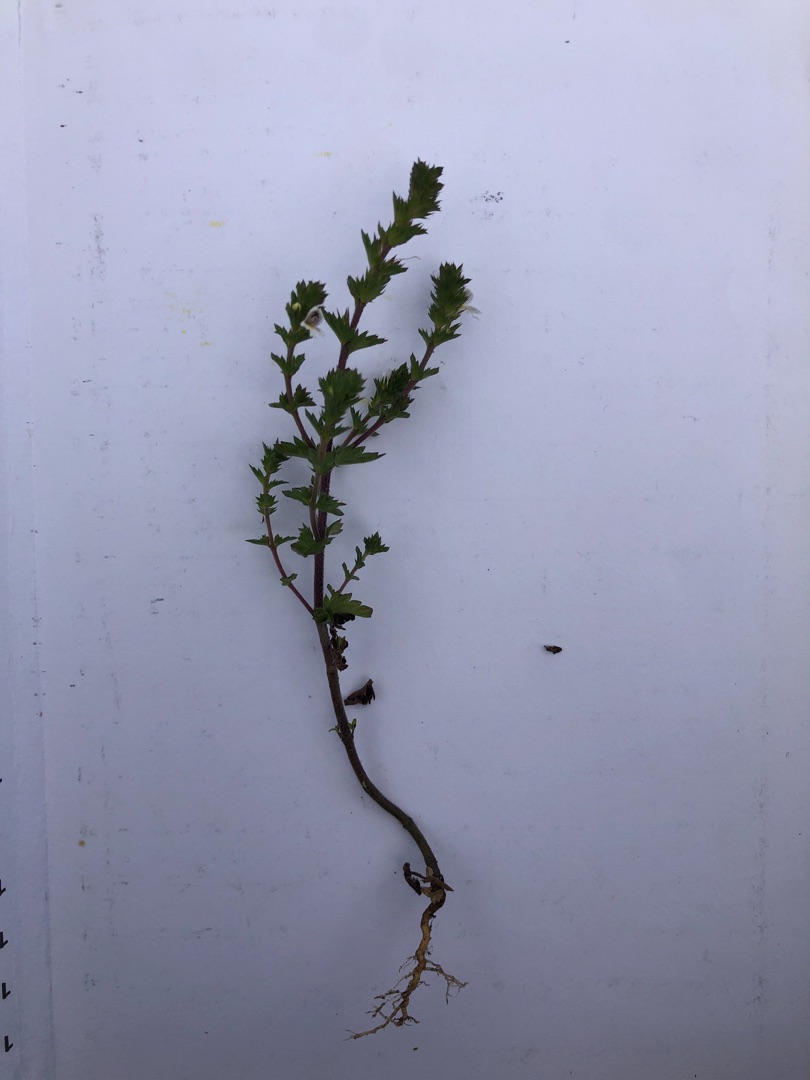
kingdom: Plantae
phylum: Tracheophyta
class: Magnoliopsida
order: Lamiales
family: Orobanchaceae
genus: Euphrasia
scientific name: Euphrasia stricta
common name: Spids øjentrøst
